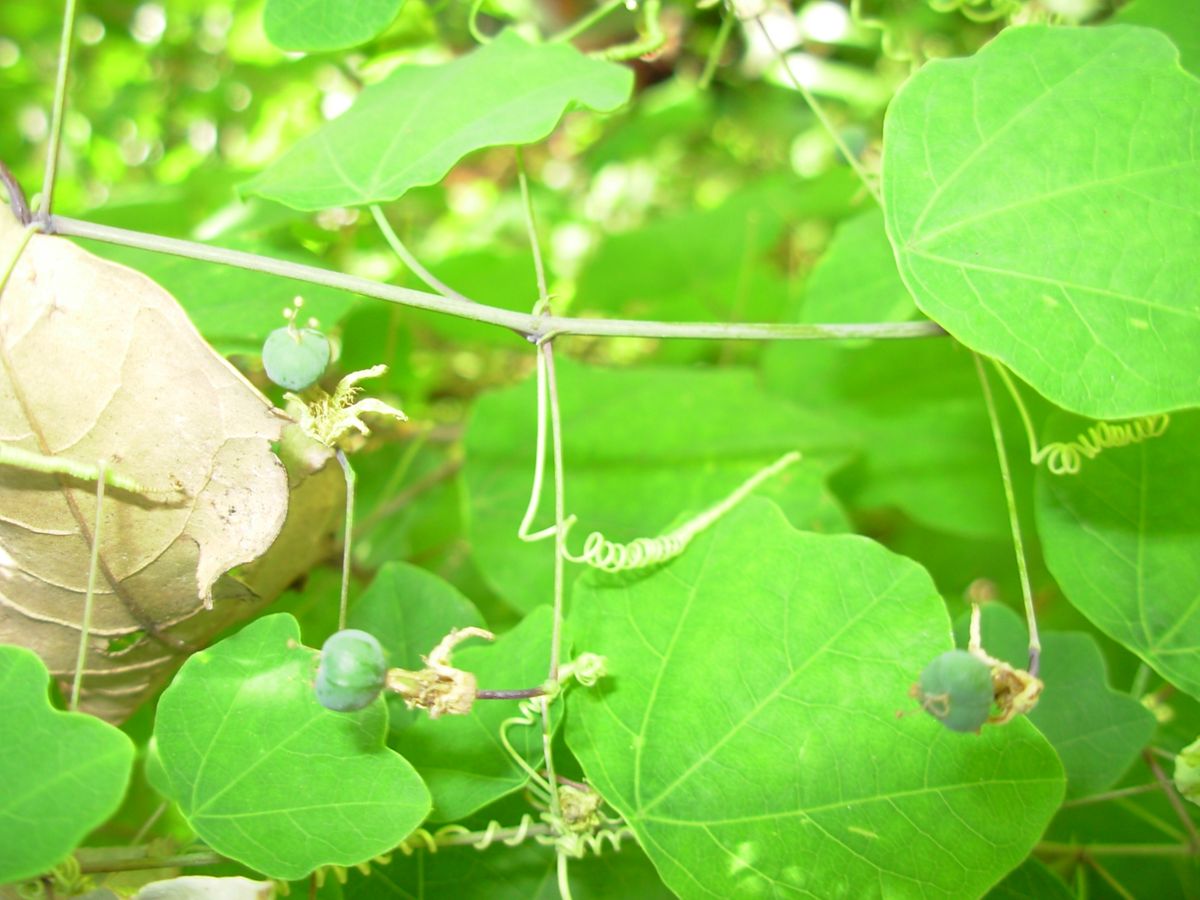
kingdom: Plantae
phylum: Tracheophyta
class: Magnoliopsida
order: Malpighiales
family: Passifloraceae
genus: Passiflora
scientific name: Passiflora filipes
